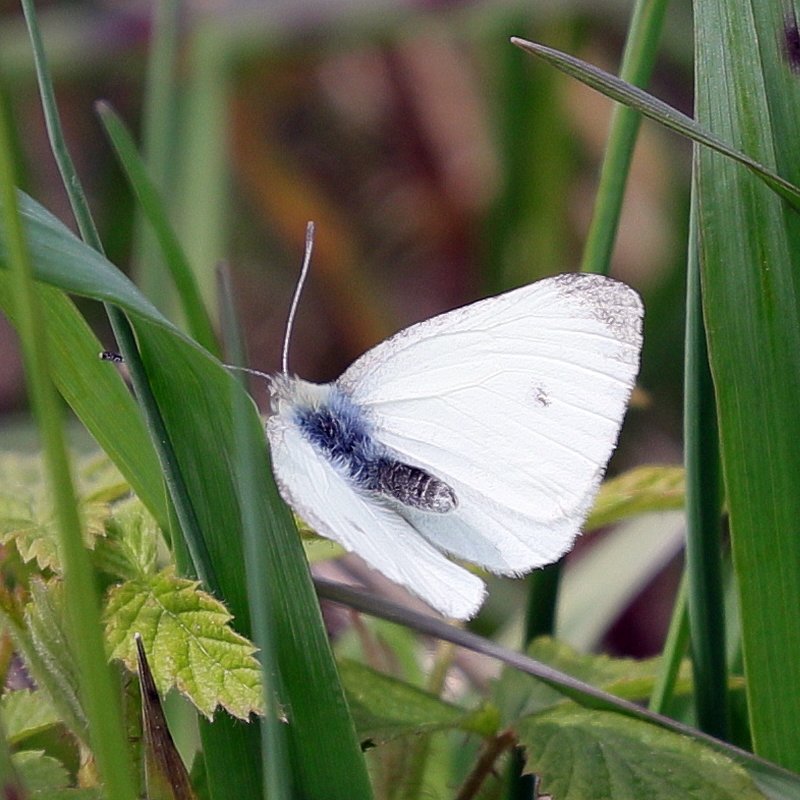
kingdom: Animalia
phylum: Arthropoda
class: Insecta
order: Lepidoptera
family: Pieridae
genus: Pieris
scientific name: Pieris rapae
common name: Cabbage White
